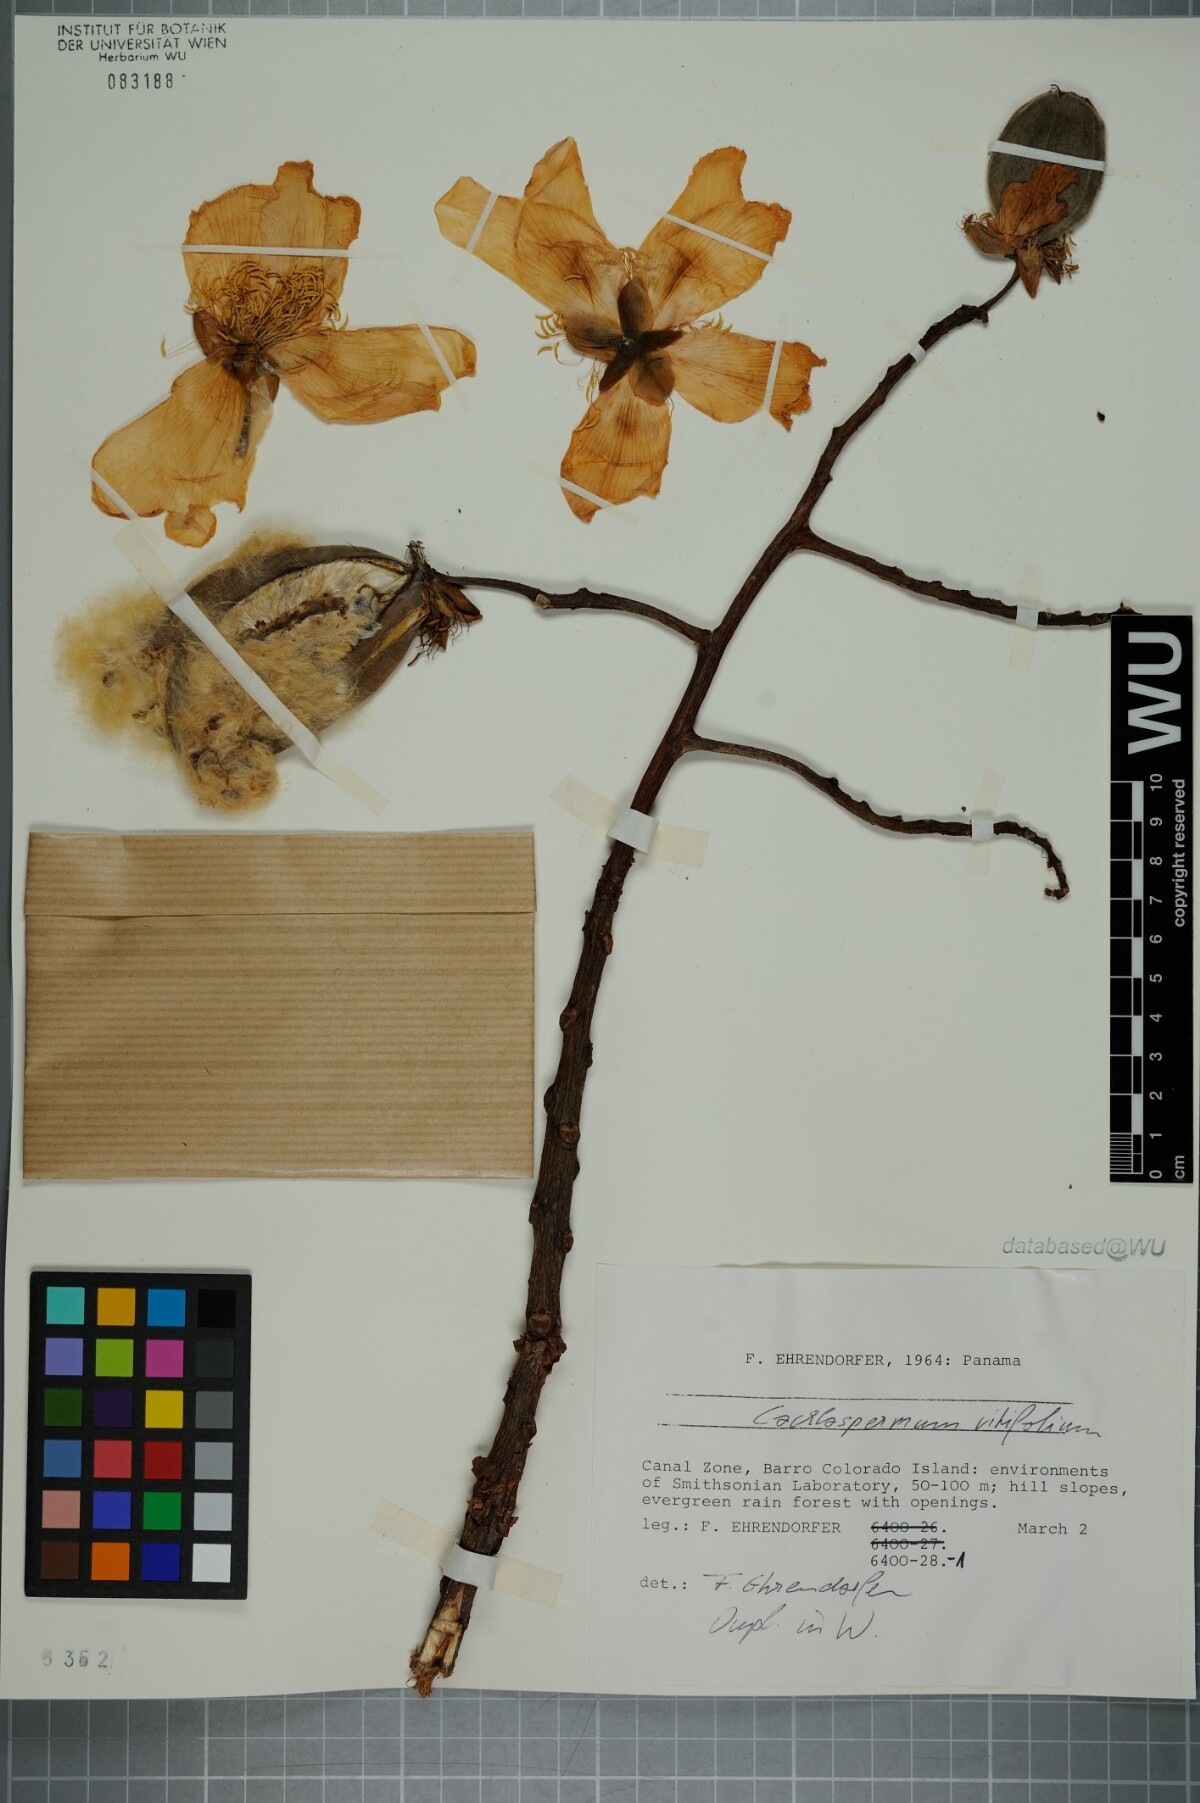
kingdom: Plantae
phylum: Tracheophyta
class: Magnoliopsida
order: Malvales
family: Cochlospermaceae
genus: Cochlospermum
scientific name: Cochlospermum vitifolium
